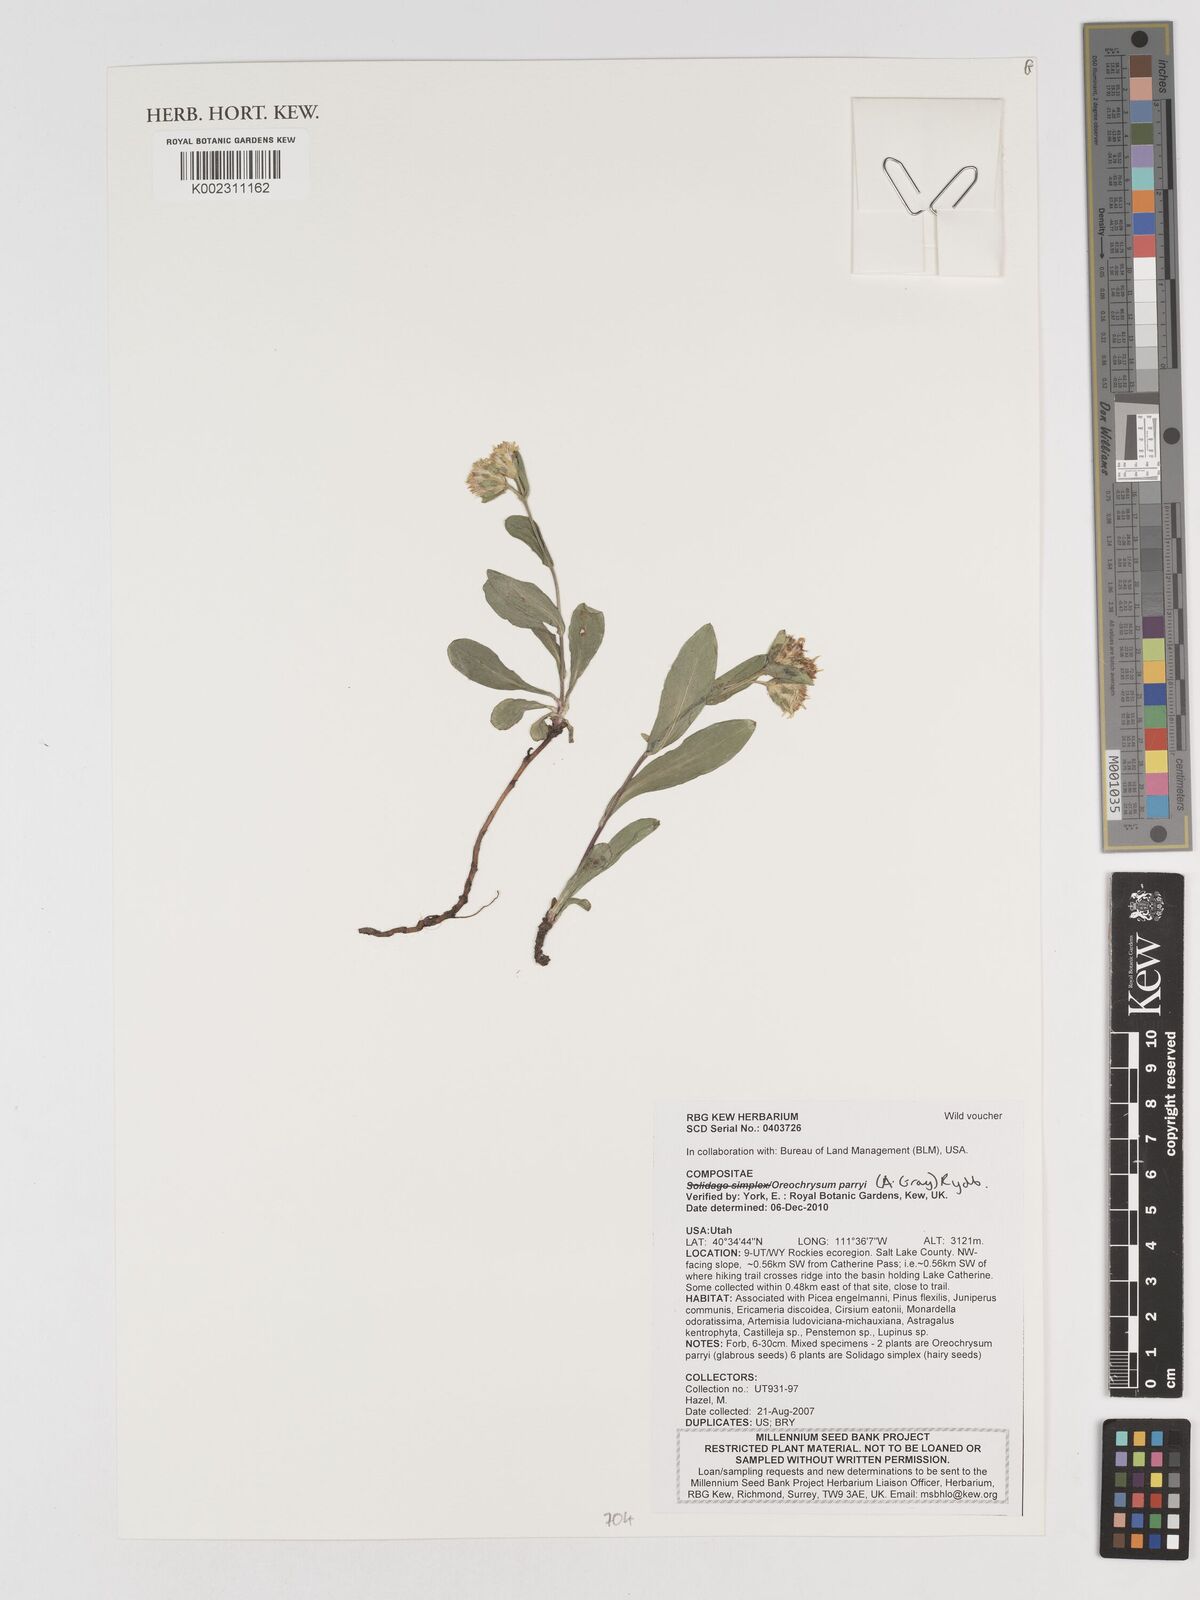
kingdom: Plantae
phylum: Tracheophyta
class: Magnoliopsida
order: Asterales
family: Asteraceae
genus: Oreochrysum
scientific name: Oreochrysum parryi
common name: Parry's goldenweed
